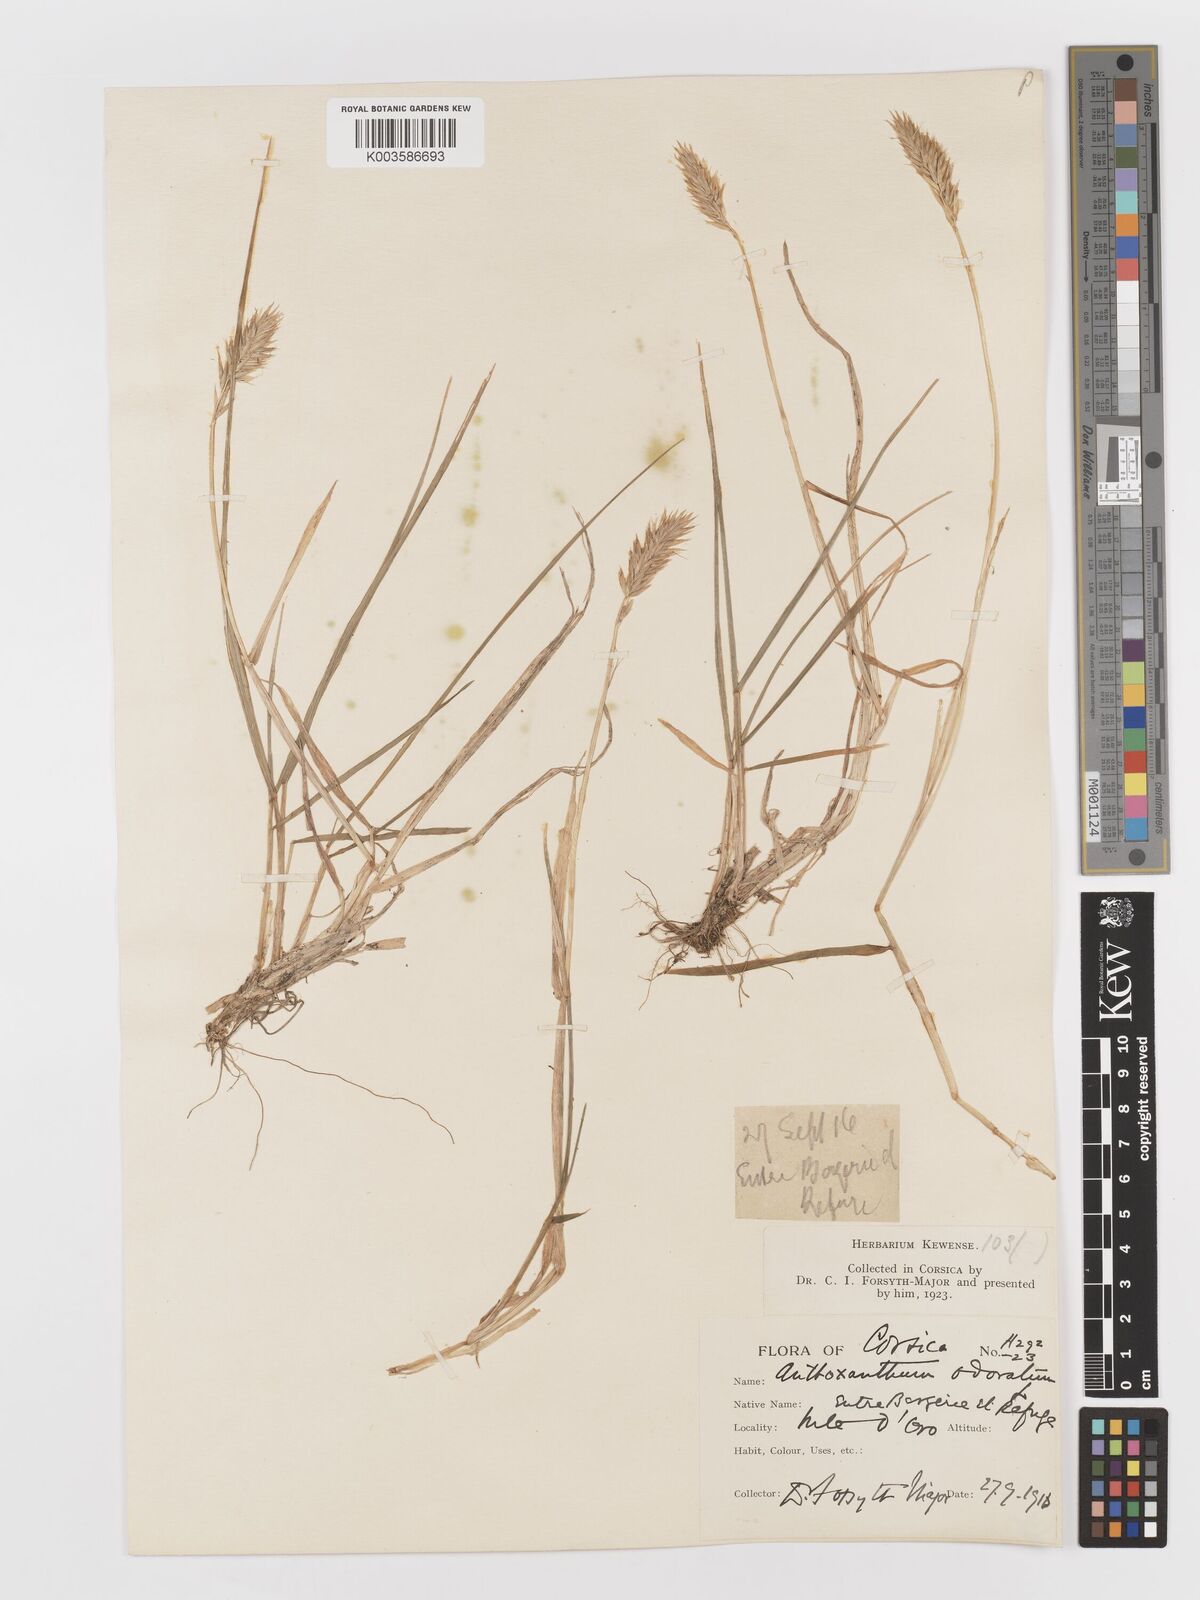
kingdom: Plantae
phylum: Tracheophyta
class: Liliopsida
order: Poales
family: Poaceae
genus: Anthoxanthum
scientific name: Anthoxanthum odoratum
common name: Sweet vernalgrass
